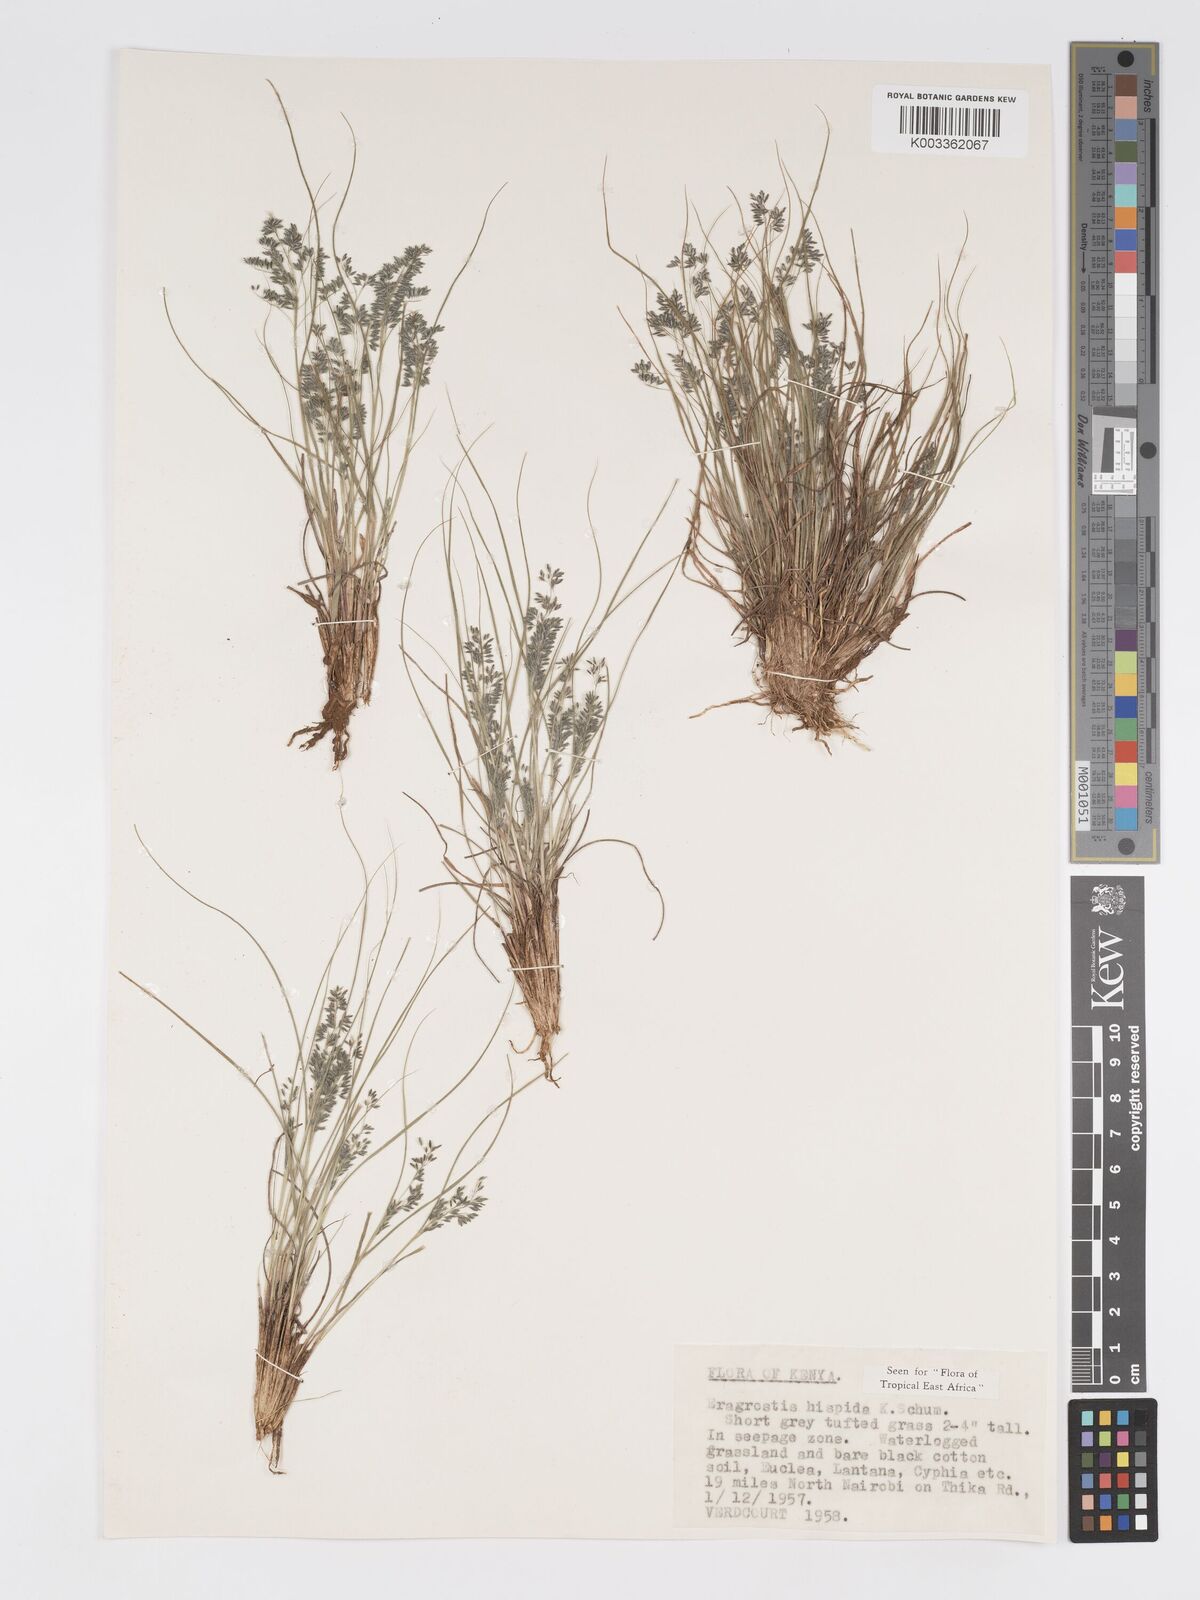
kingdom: Plantae
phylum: Tracheophyta
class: Liliopsida
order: Poales
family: Poaceae
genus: Eragrostis
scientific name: Eragrostis hispida
